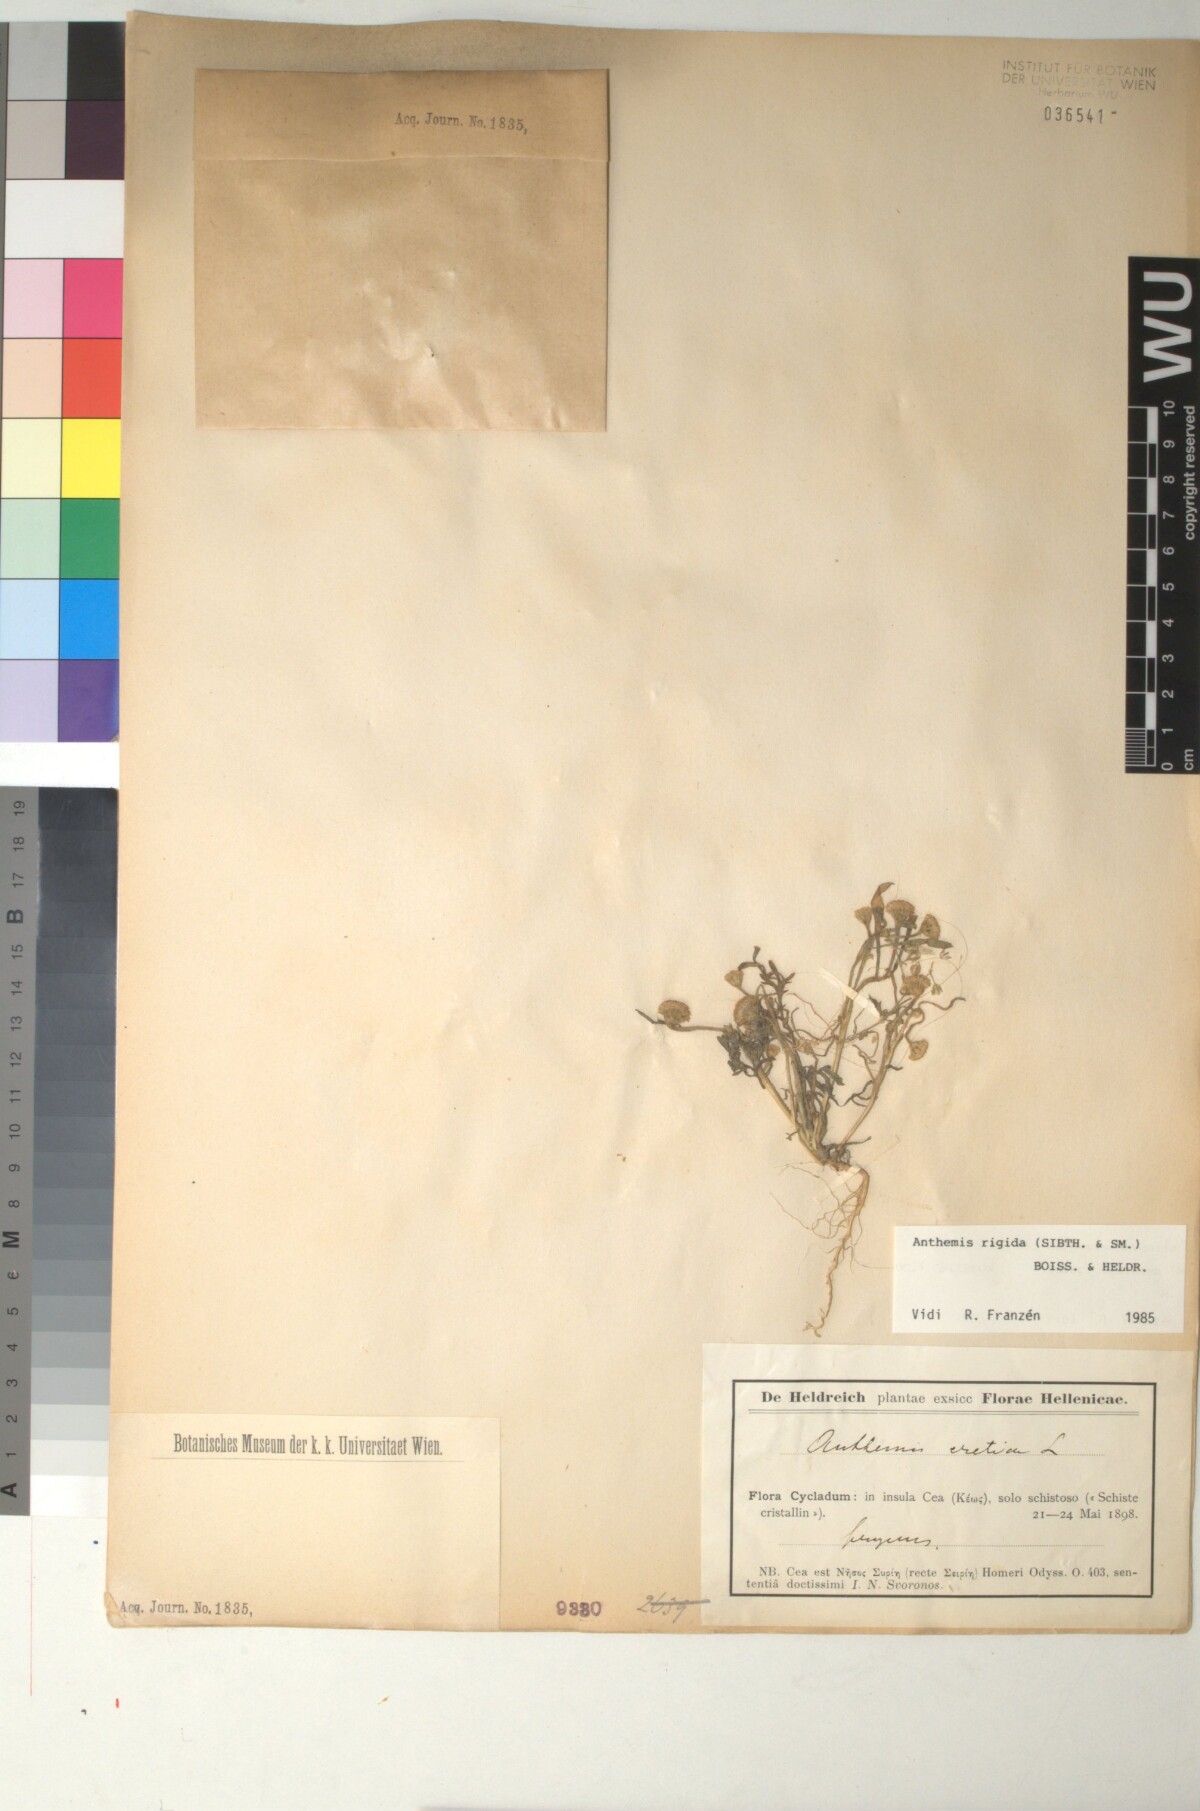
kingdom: Plantae
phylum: Tracheophyta
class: Magnoliopsida
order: Asterales
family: Asteraceae
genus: Anthemis
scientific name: Anthemis rigida
